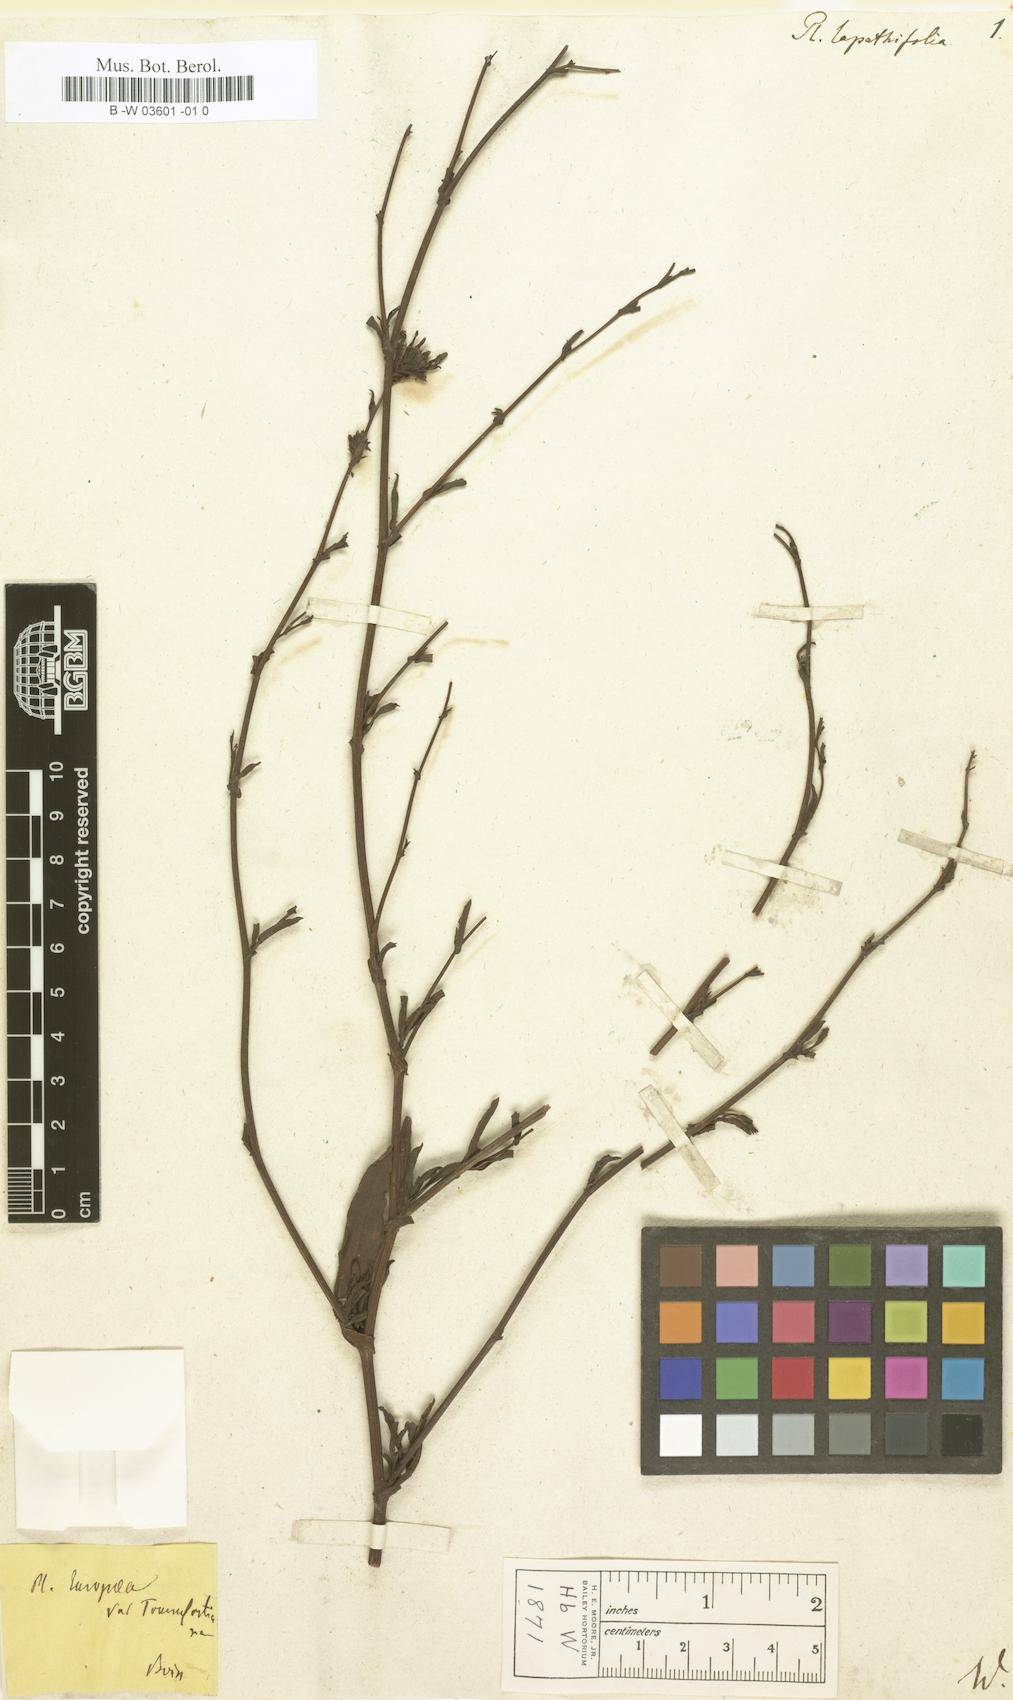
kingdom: Plantae
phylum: Tracheophyta
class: Magnoliopsida
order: Caryophyllales
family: Plumbaginaceae
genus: Plumbago
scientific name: Plumbago europaea
